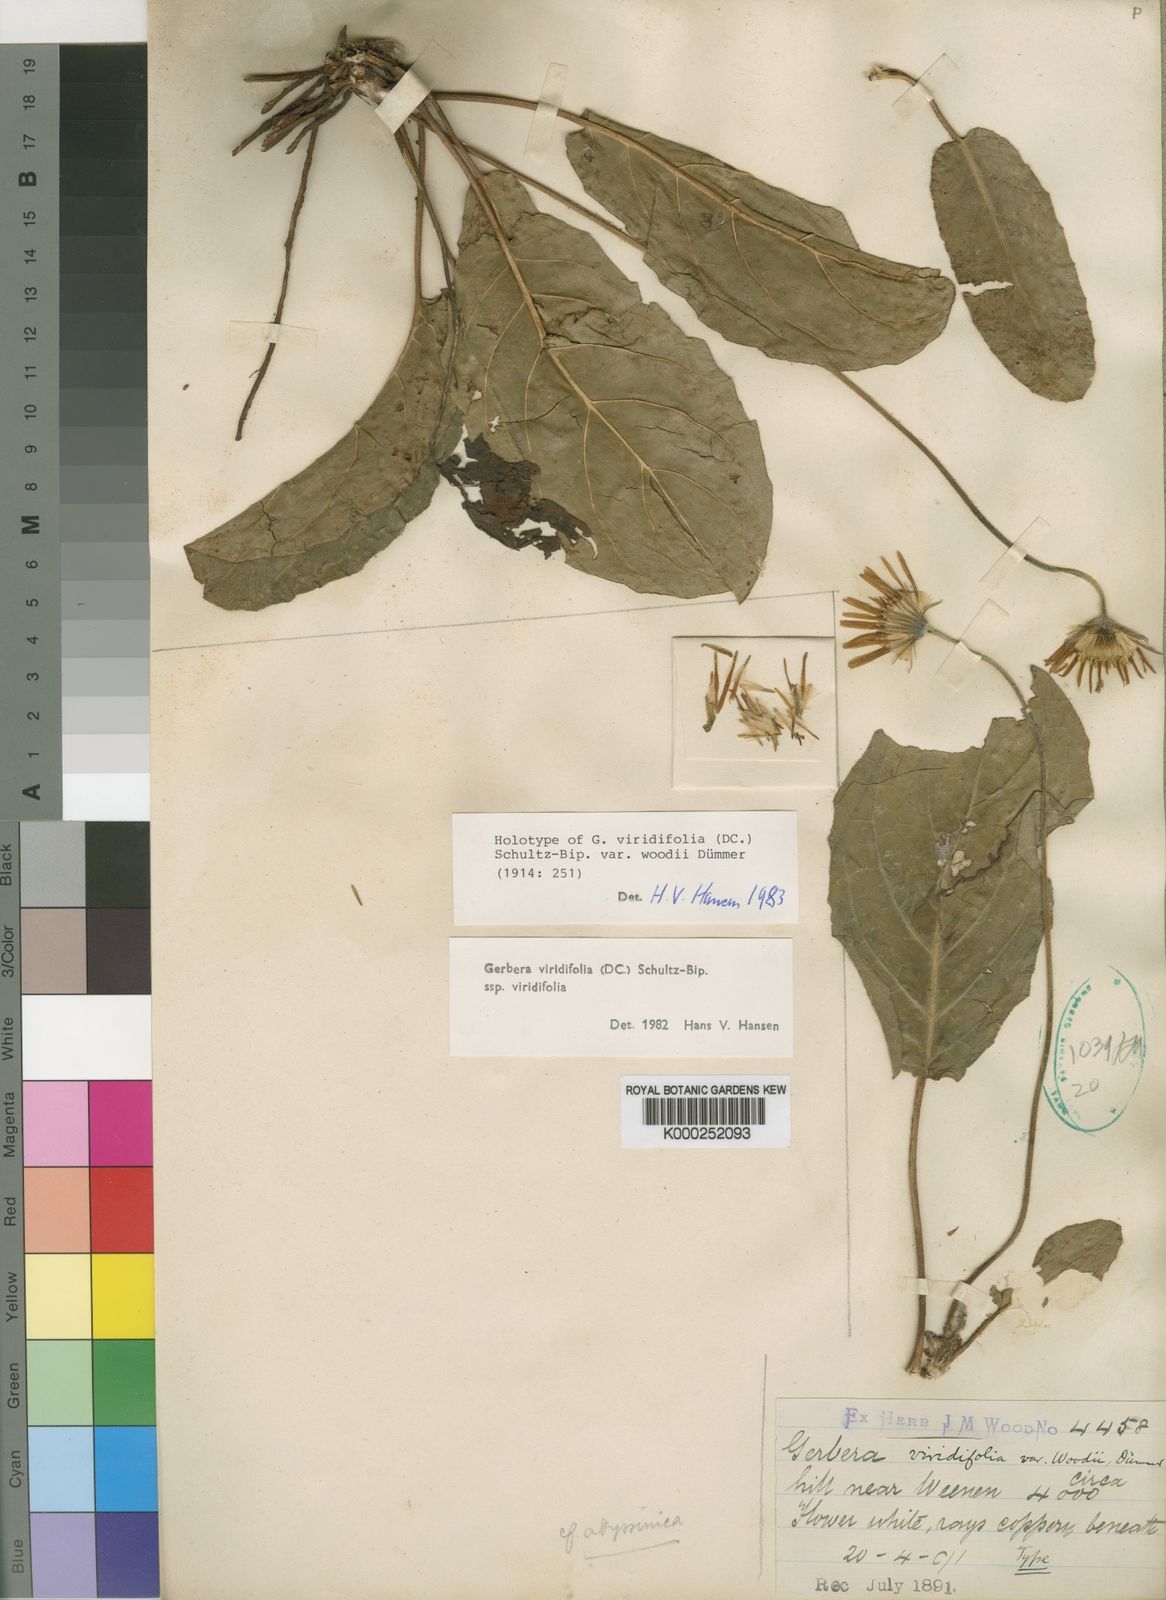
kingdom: Plantae
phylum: Tracheophyta
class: Magnoliopsida
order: Asterales
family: Asteraceae
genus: Gerbera
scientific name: Gerbera viridifolia
